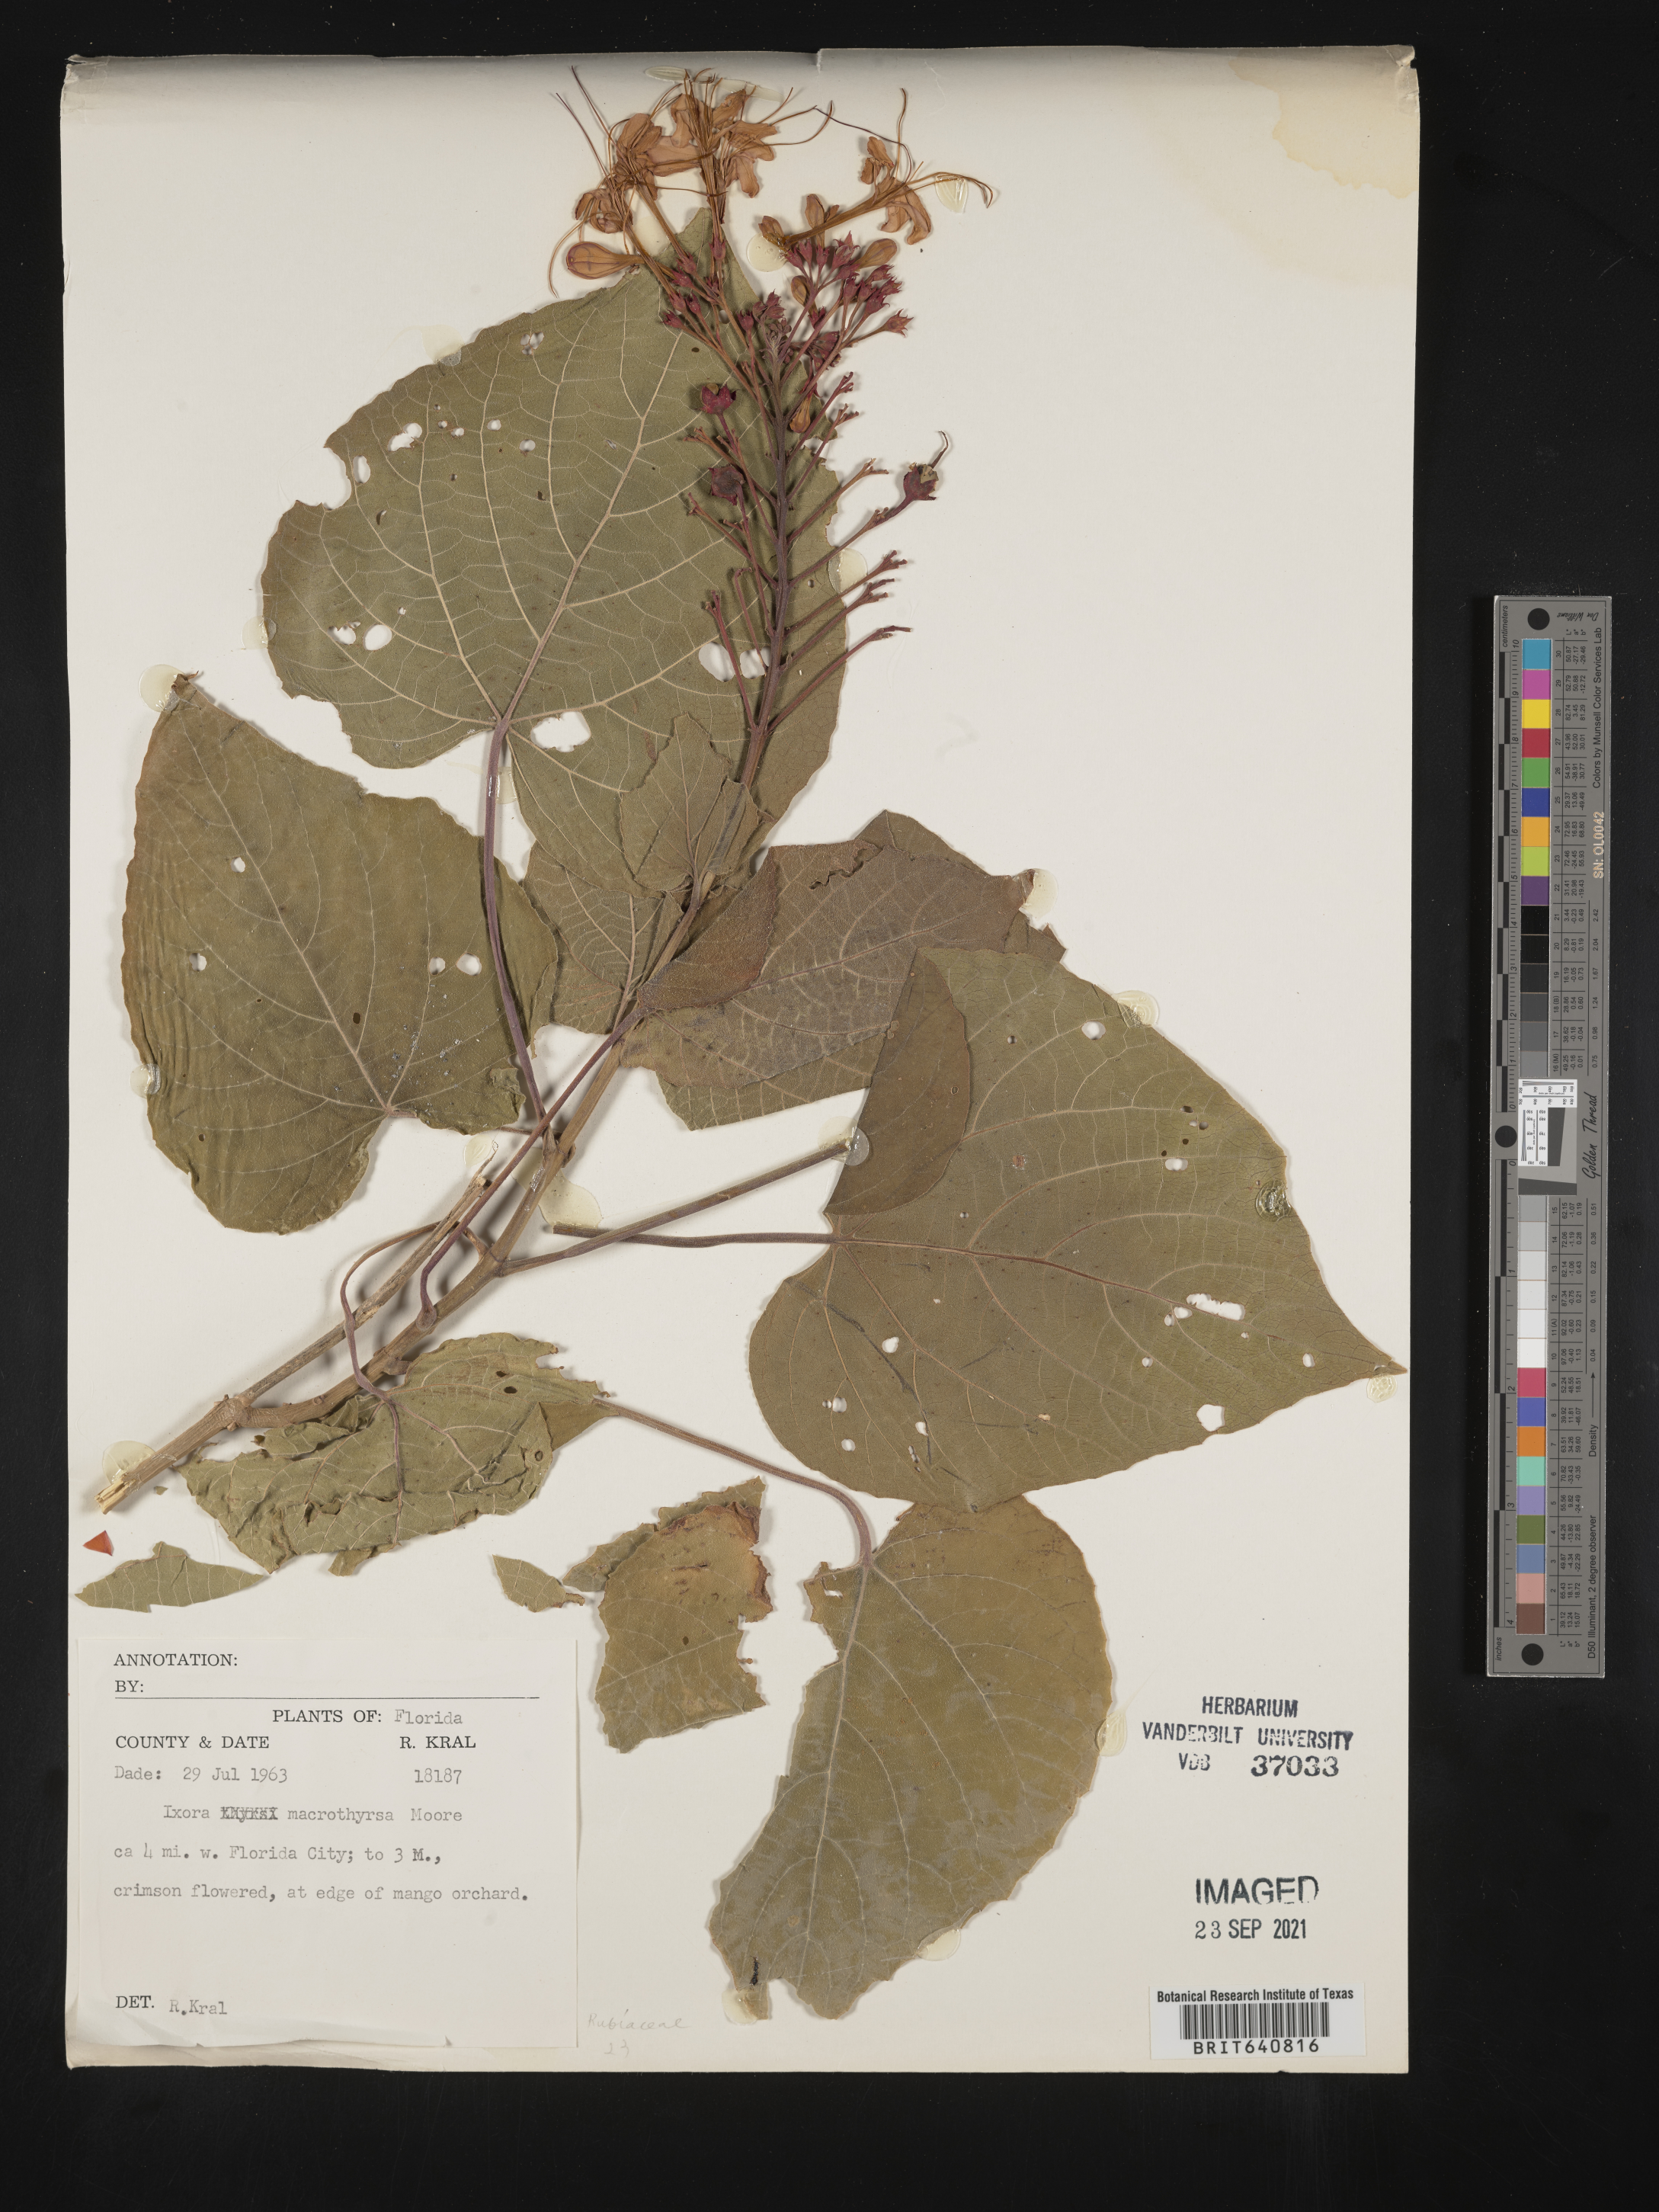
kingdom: Plantae
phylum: Tracheophyta
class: Magnoliopsida
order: Gentianales
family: Rubiaceae
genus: Ixora
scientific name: Ixora coccinea
